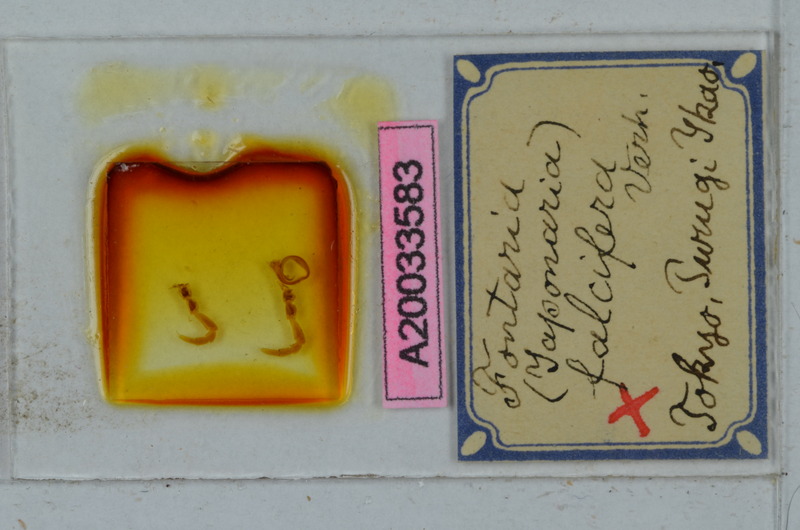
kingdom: Animalia
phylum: Arthropoda
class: Diplopoda
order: Polydesmida
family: Xystodesmidae
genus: Parafontaria
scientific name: Parafontaria falcifera
